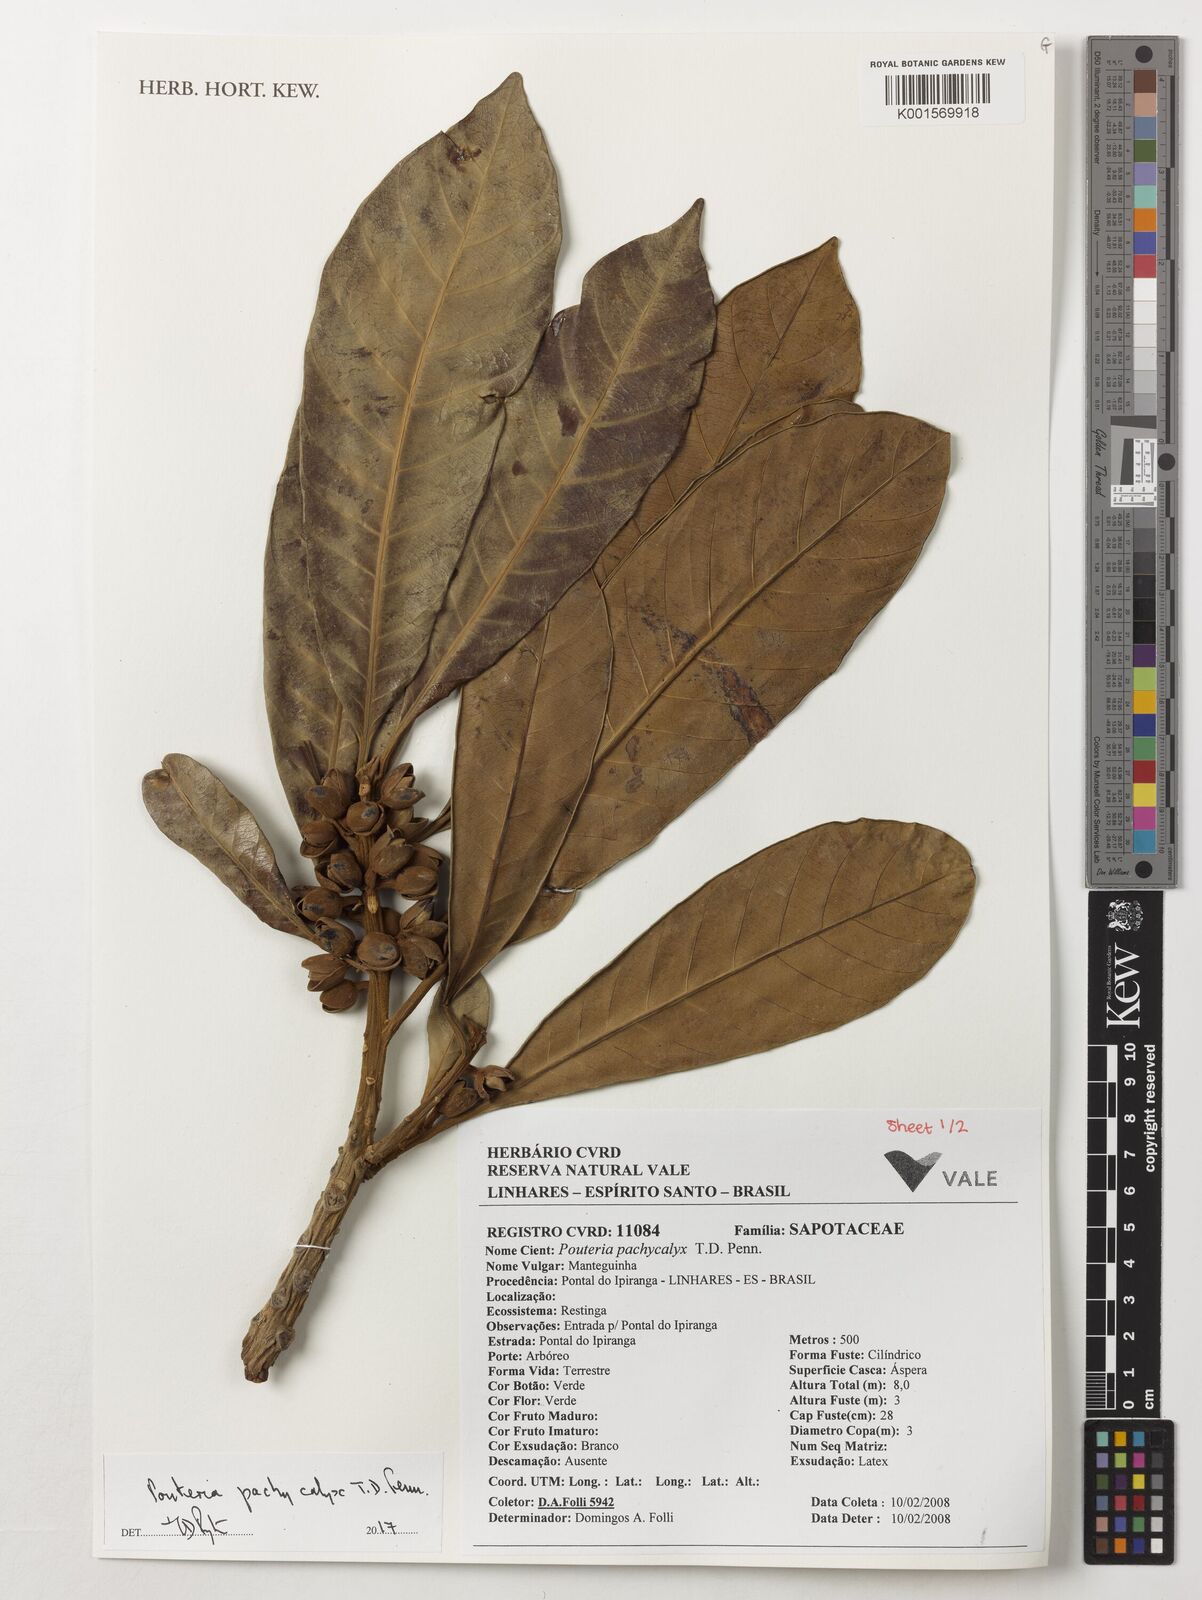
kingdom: Plantae
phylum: Tracheophyta
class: Magnoliopsida
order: Ericales
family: Sapotaceae
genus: Pouteria
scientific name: Pouteria pachycalyx
